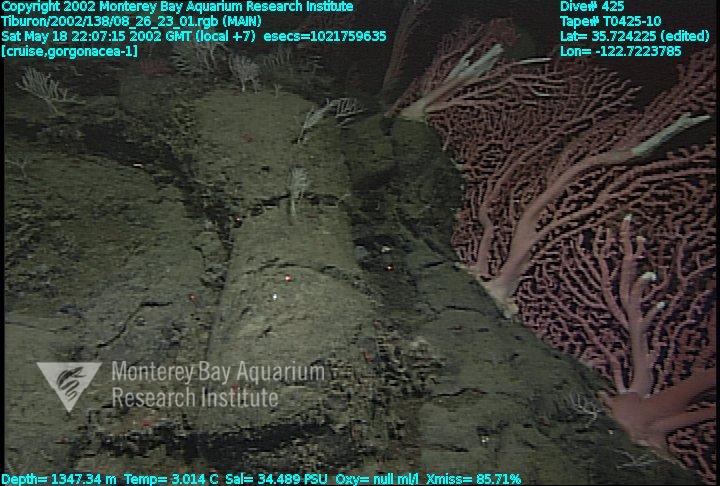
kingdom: Animalia
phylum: Porifera
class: Demospongiae
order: Poecilosclerida
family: Cladorhizidae
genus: Asbestopluma
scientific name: Asbestopluma monticola
